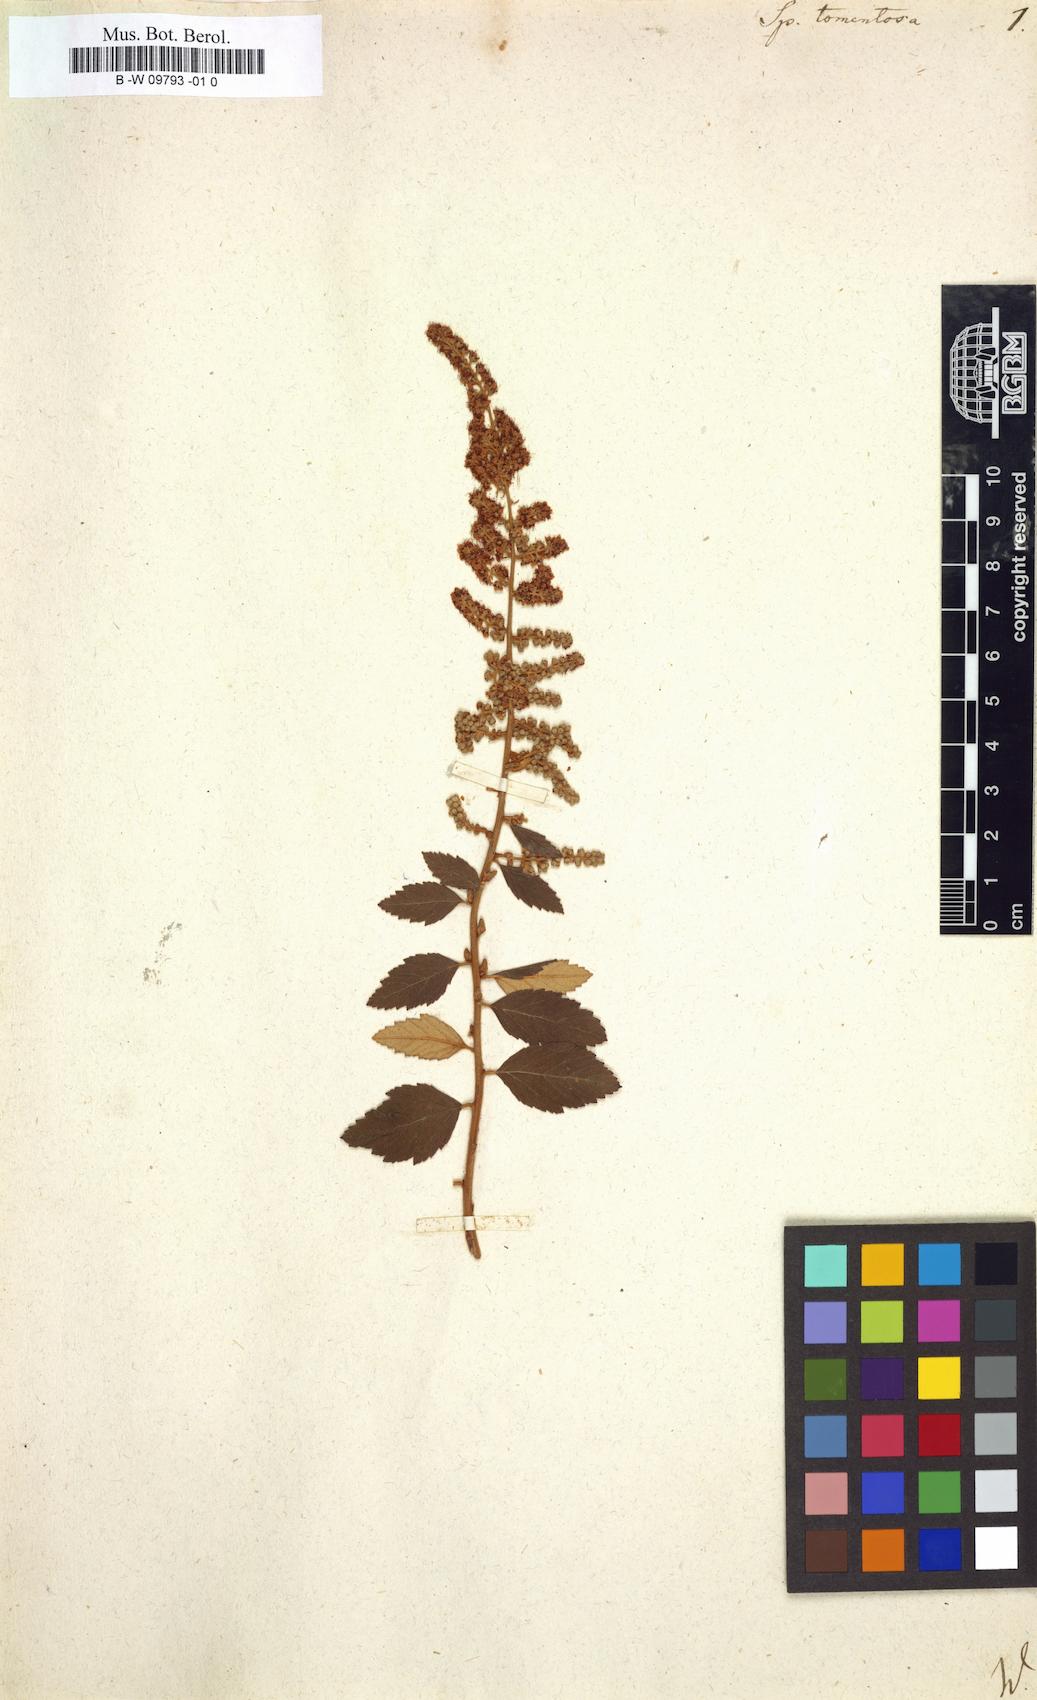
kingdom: Plantae
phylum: Tracheophyta
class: Magnoliopsida
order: Rosales
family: Rosaceae
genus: Spiraea
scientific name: Spiraea tomentosa
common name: Hardhack
